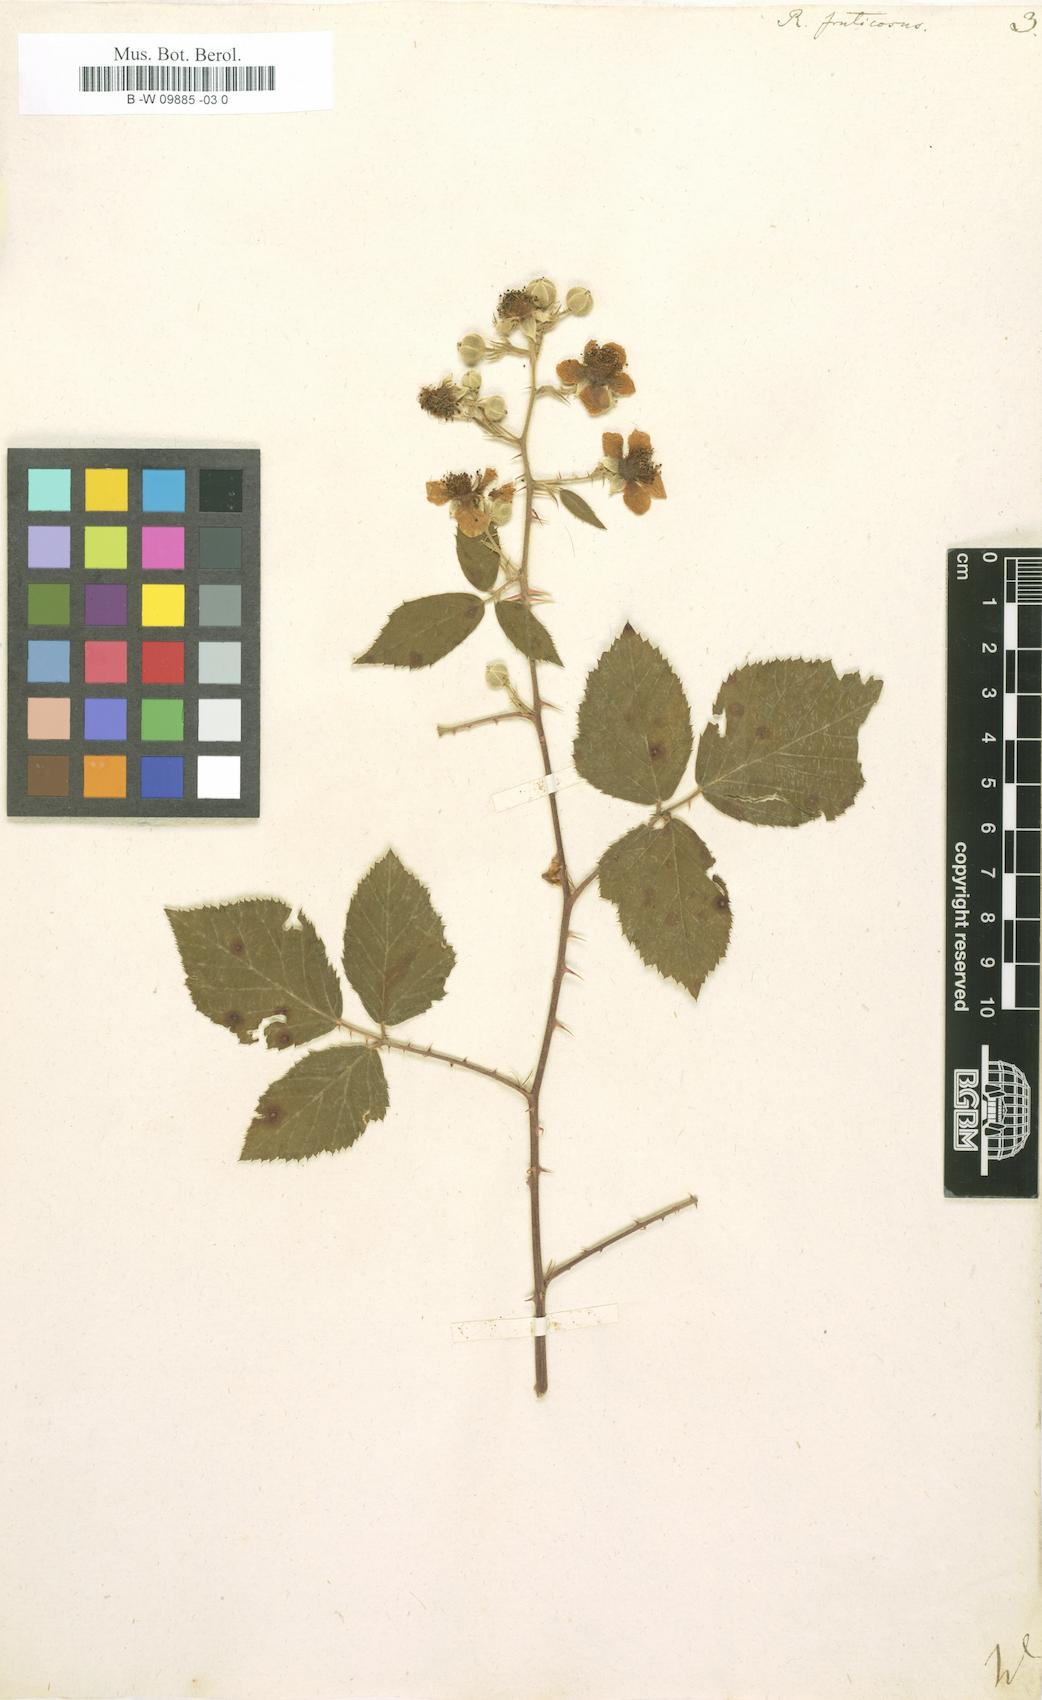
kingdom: Plantae
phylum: Tracheophyta
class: Magnoliopsida
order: Rosales
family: Rosaceae
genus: Rubus
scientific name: Rubus fruticosus
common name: Blackberry, bramble
